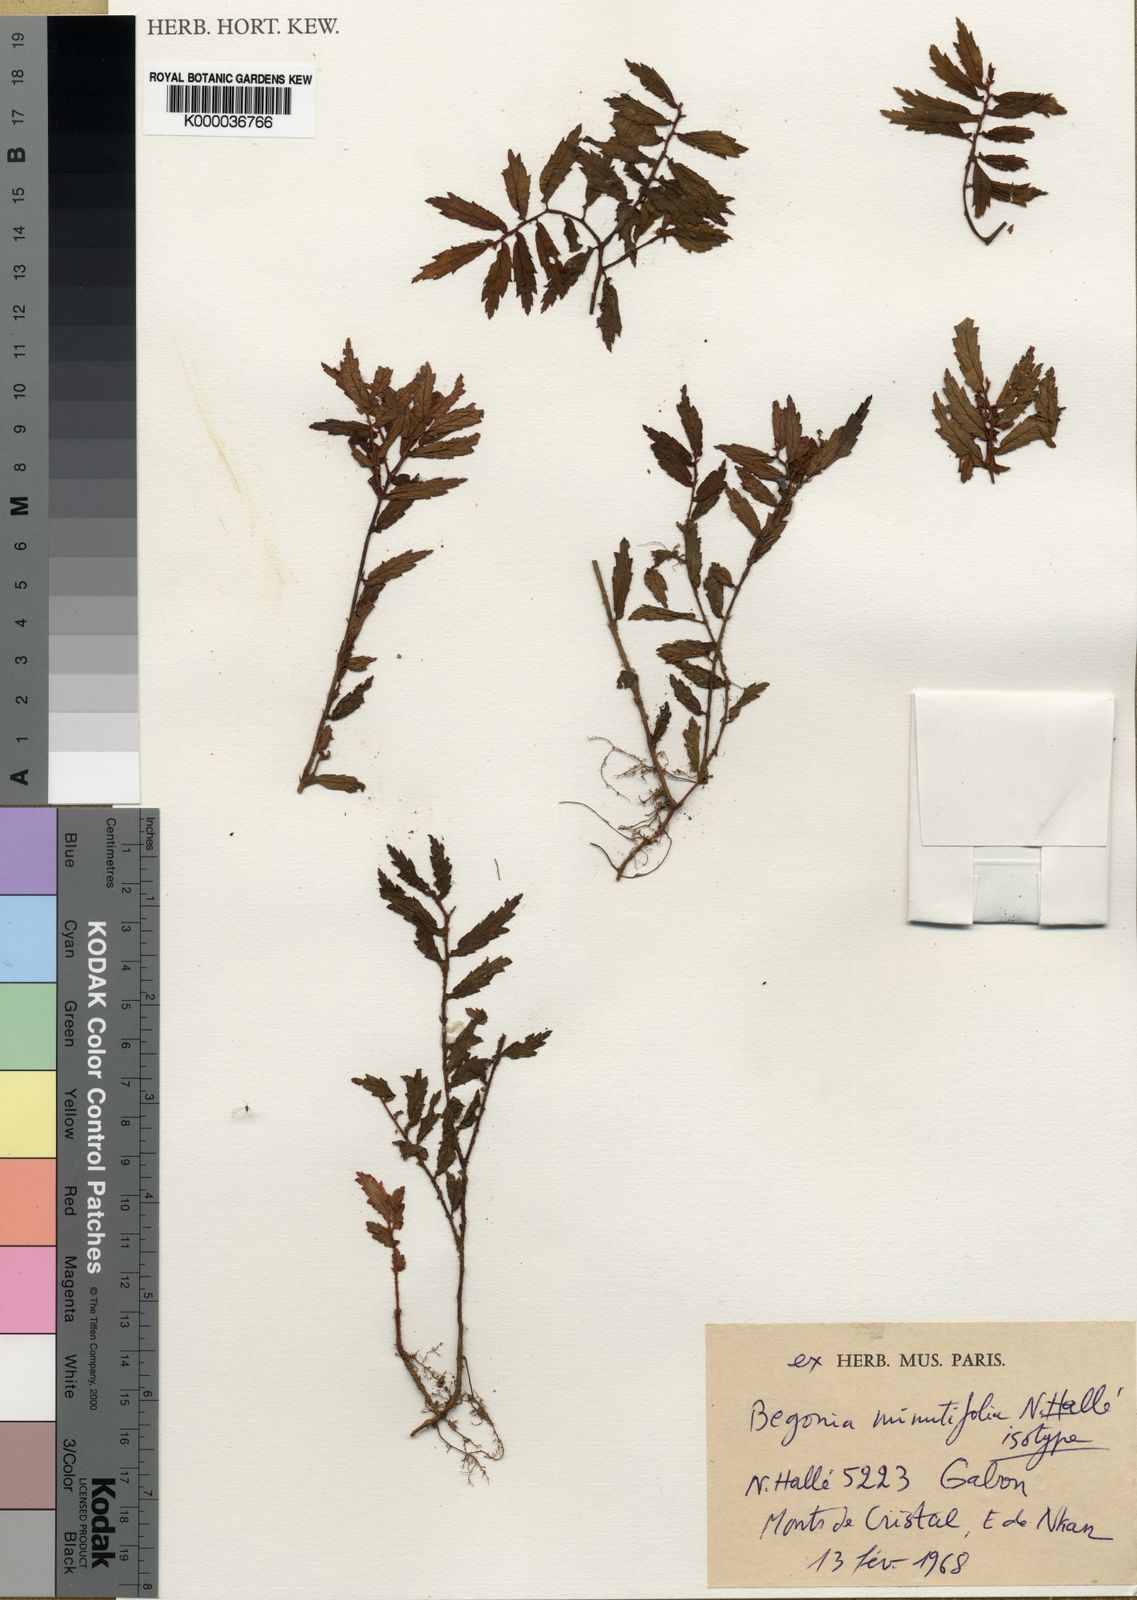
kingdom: Plantae
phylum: Tracheophyta
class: Magnoliopsida
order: Cucurbitales
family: Begoniaceae
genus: Begonia
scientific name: Begonia
